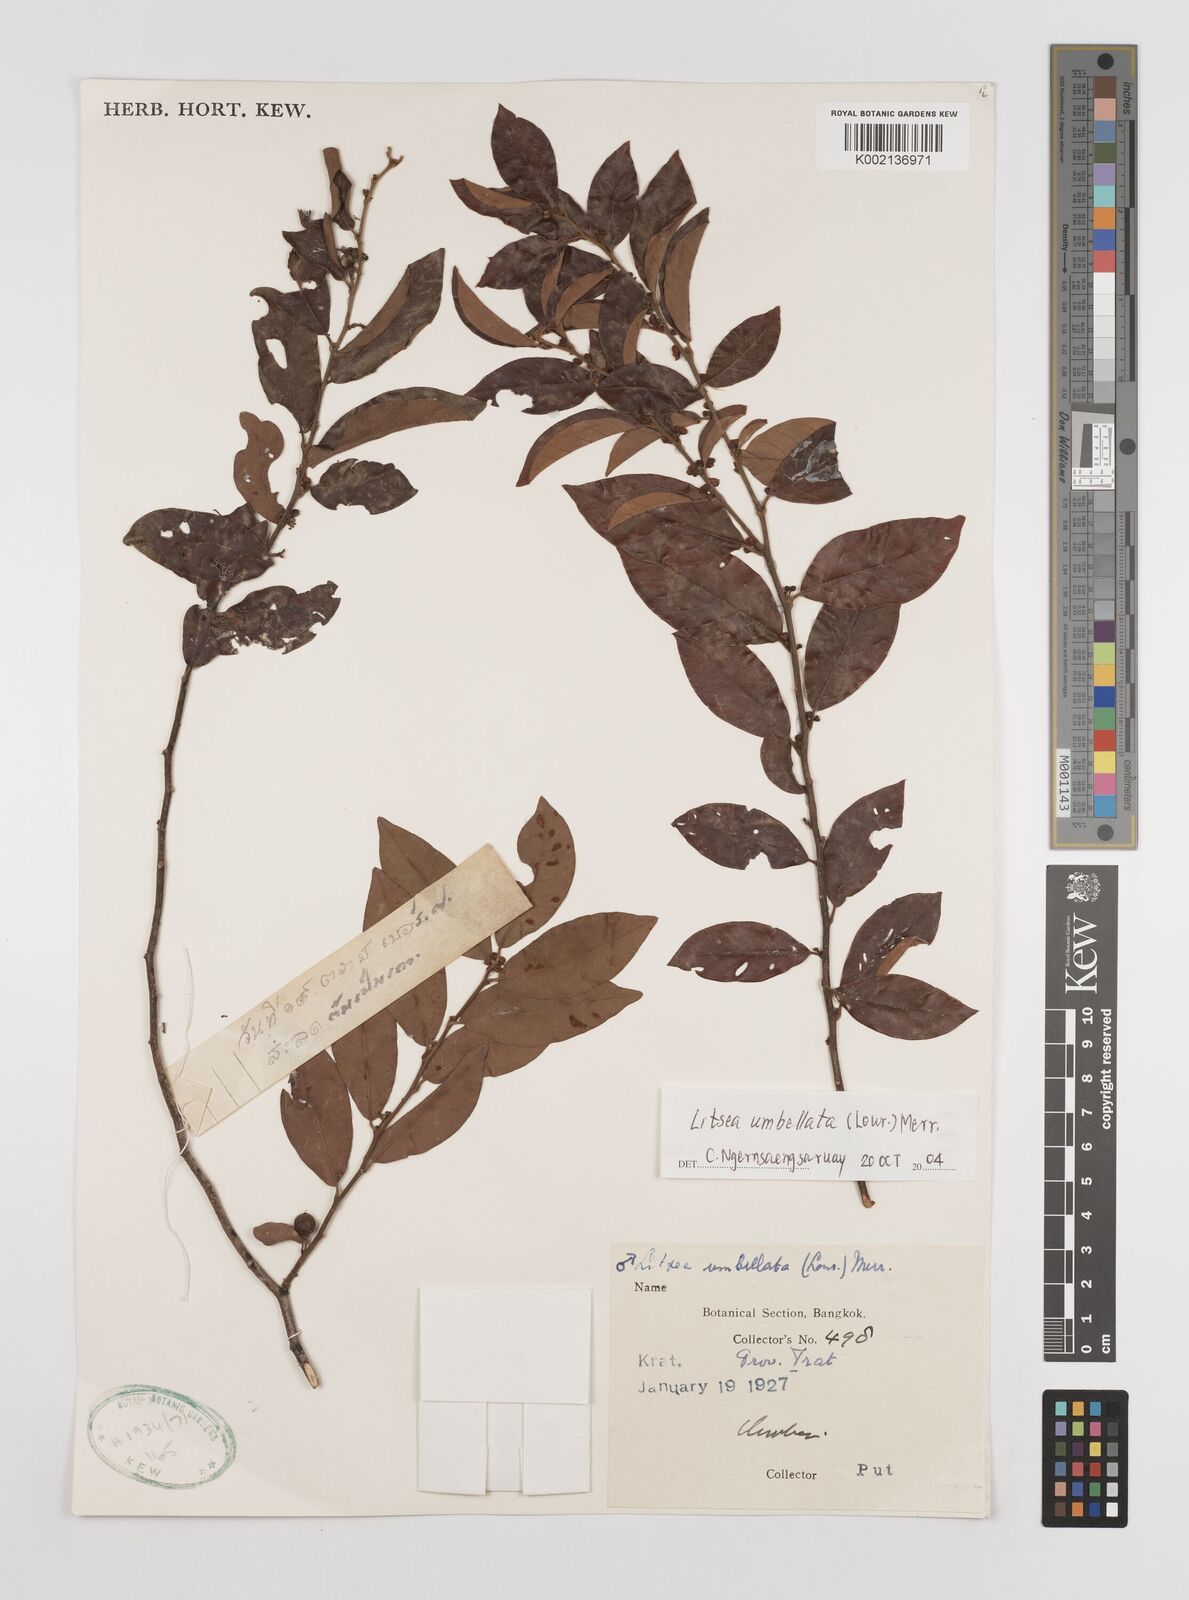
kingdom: Plantae
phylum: Tracheophyta
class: Magnoliopsida
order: Laurales
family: Lauraceae
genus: Litsea
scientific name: Litsea umbellata
